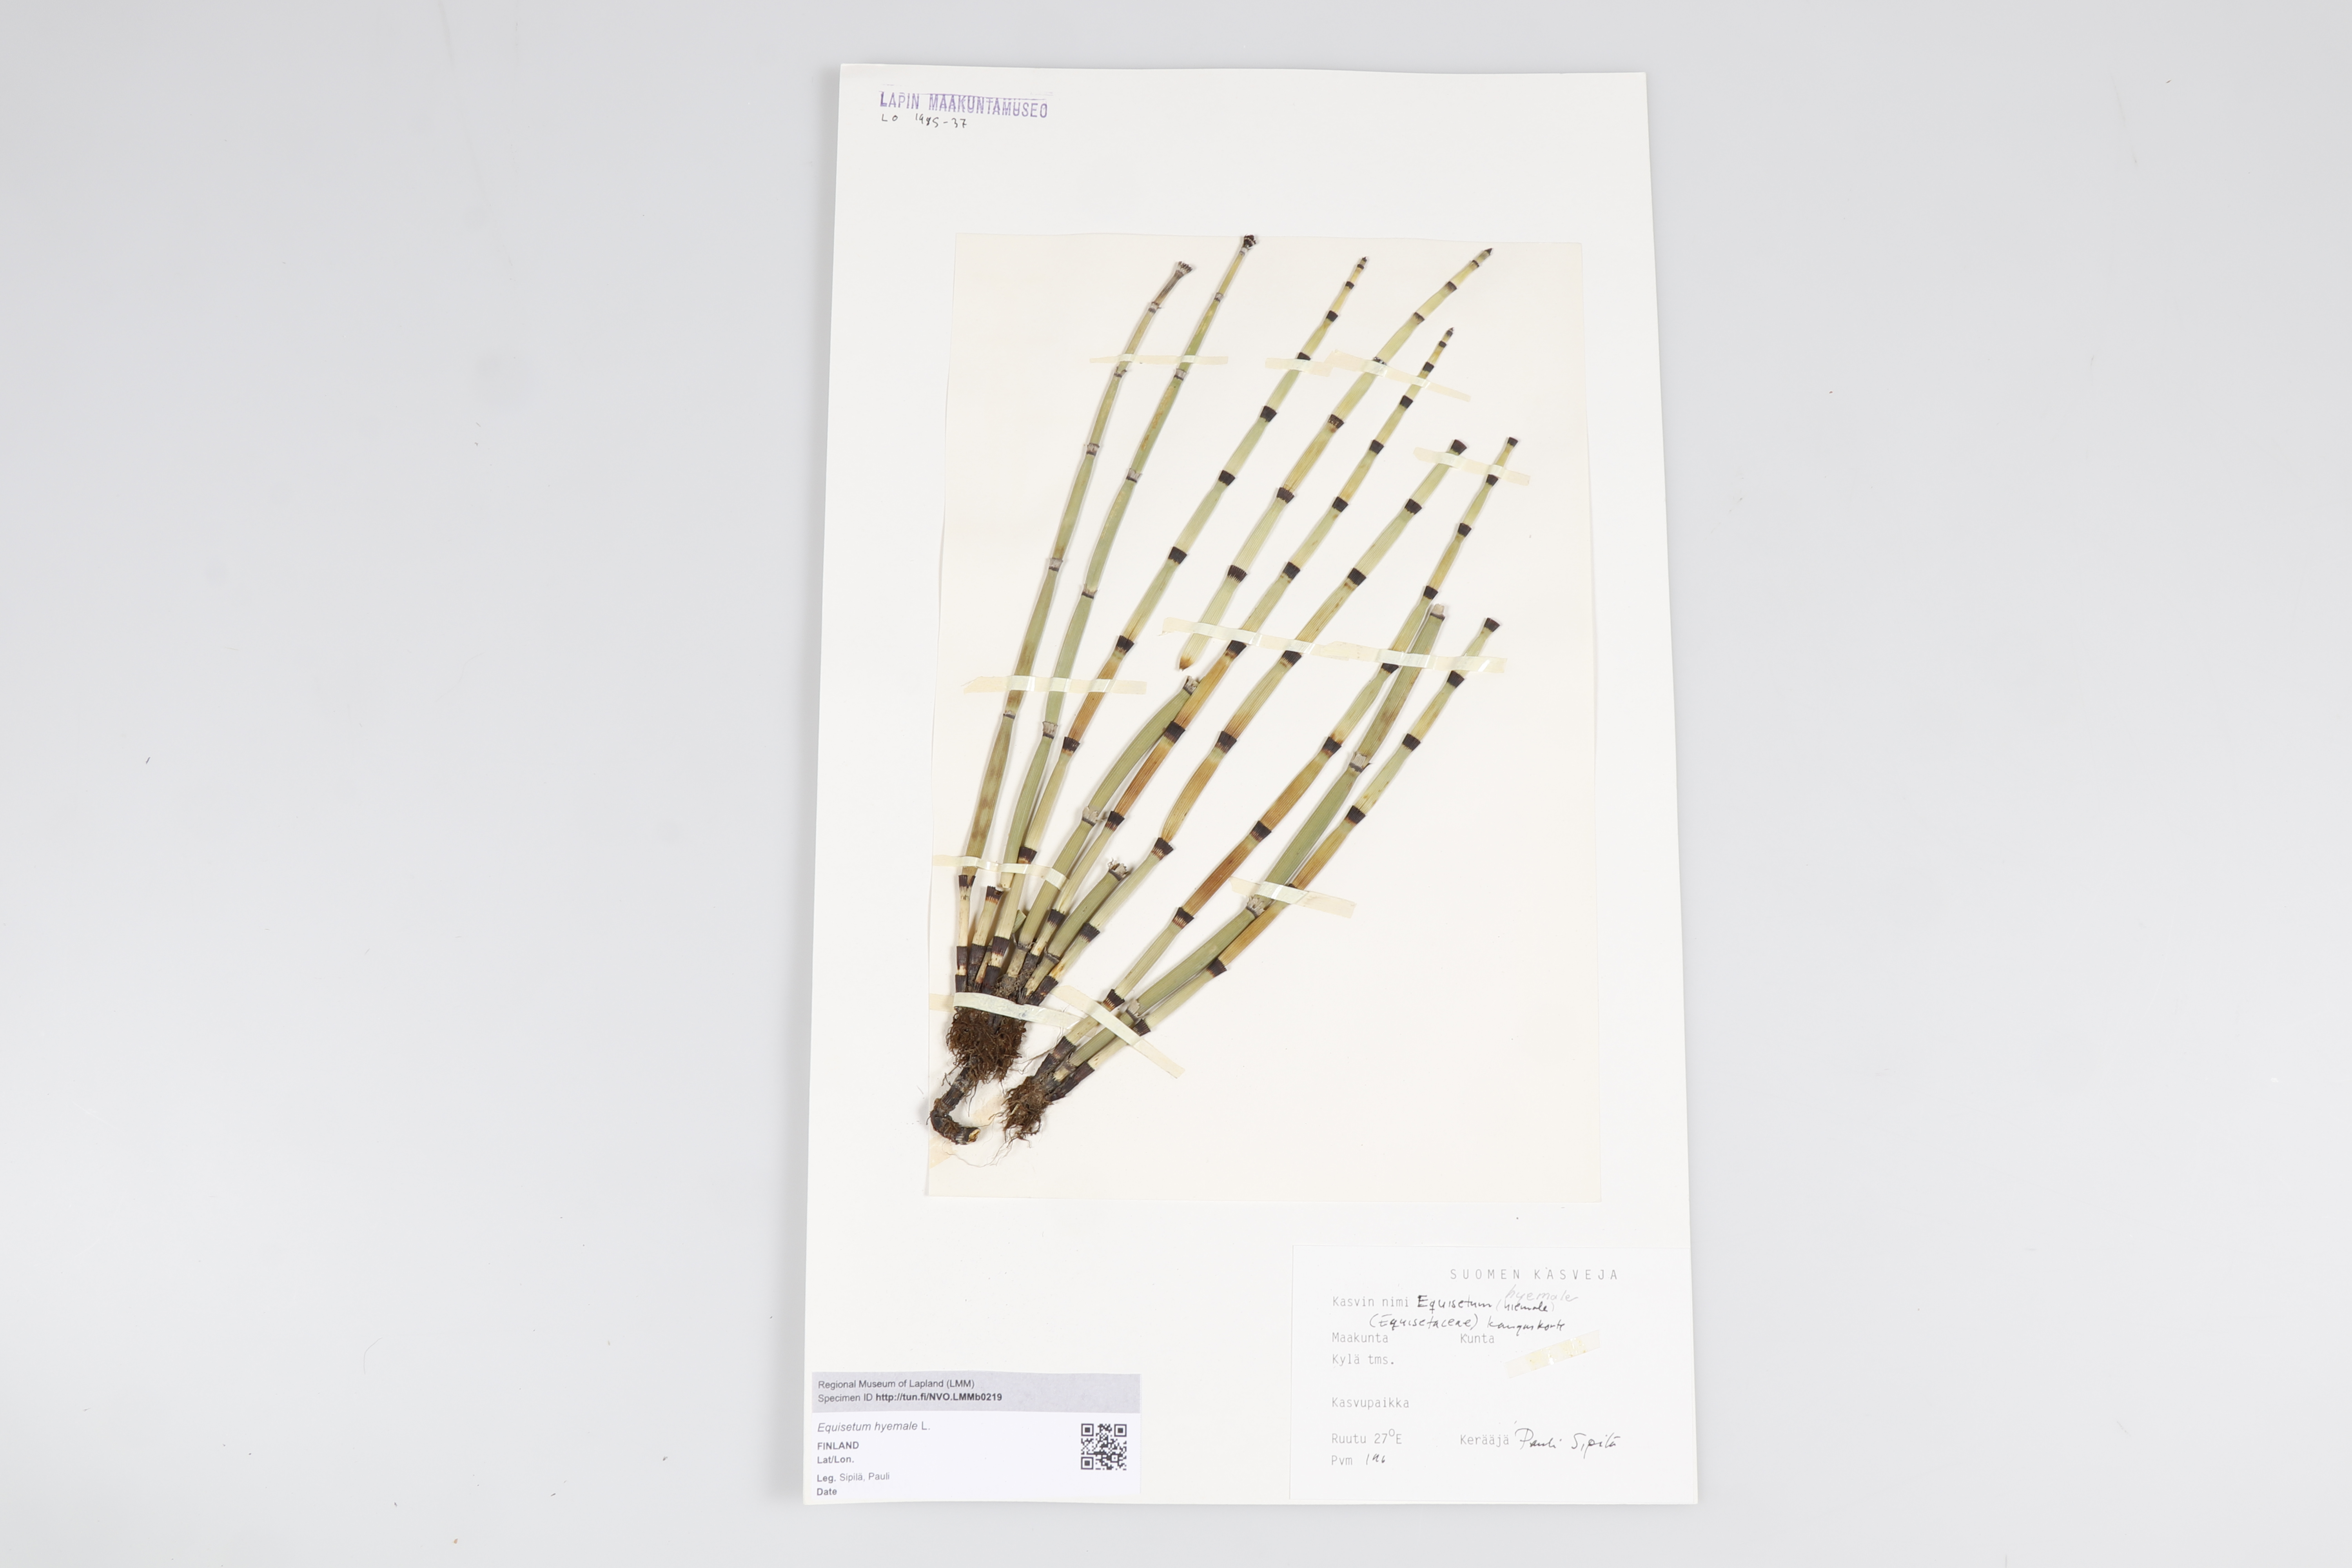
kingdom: Plantae
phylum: Tracheophyta
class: Polypodiopsida
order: Equisetales
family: Equisetaceae
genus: Equisetum
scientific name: Equisetum hyemale
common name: Rough horsetail
